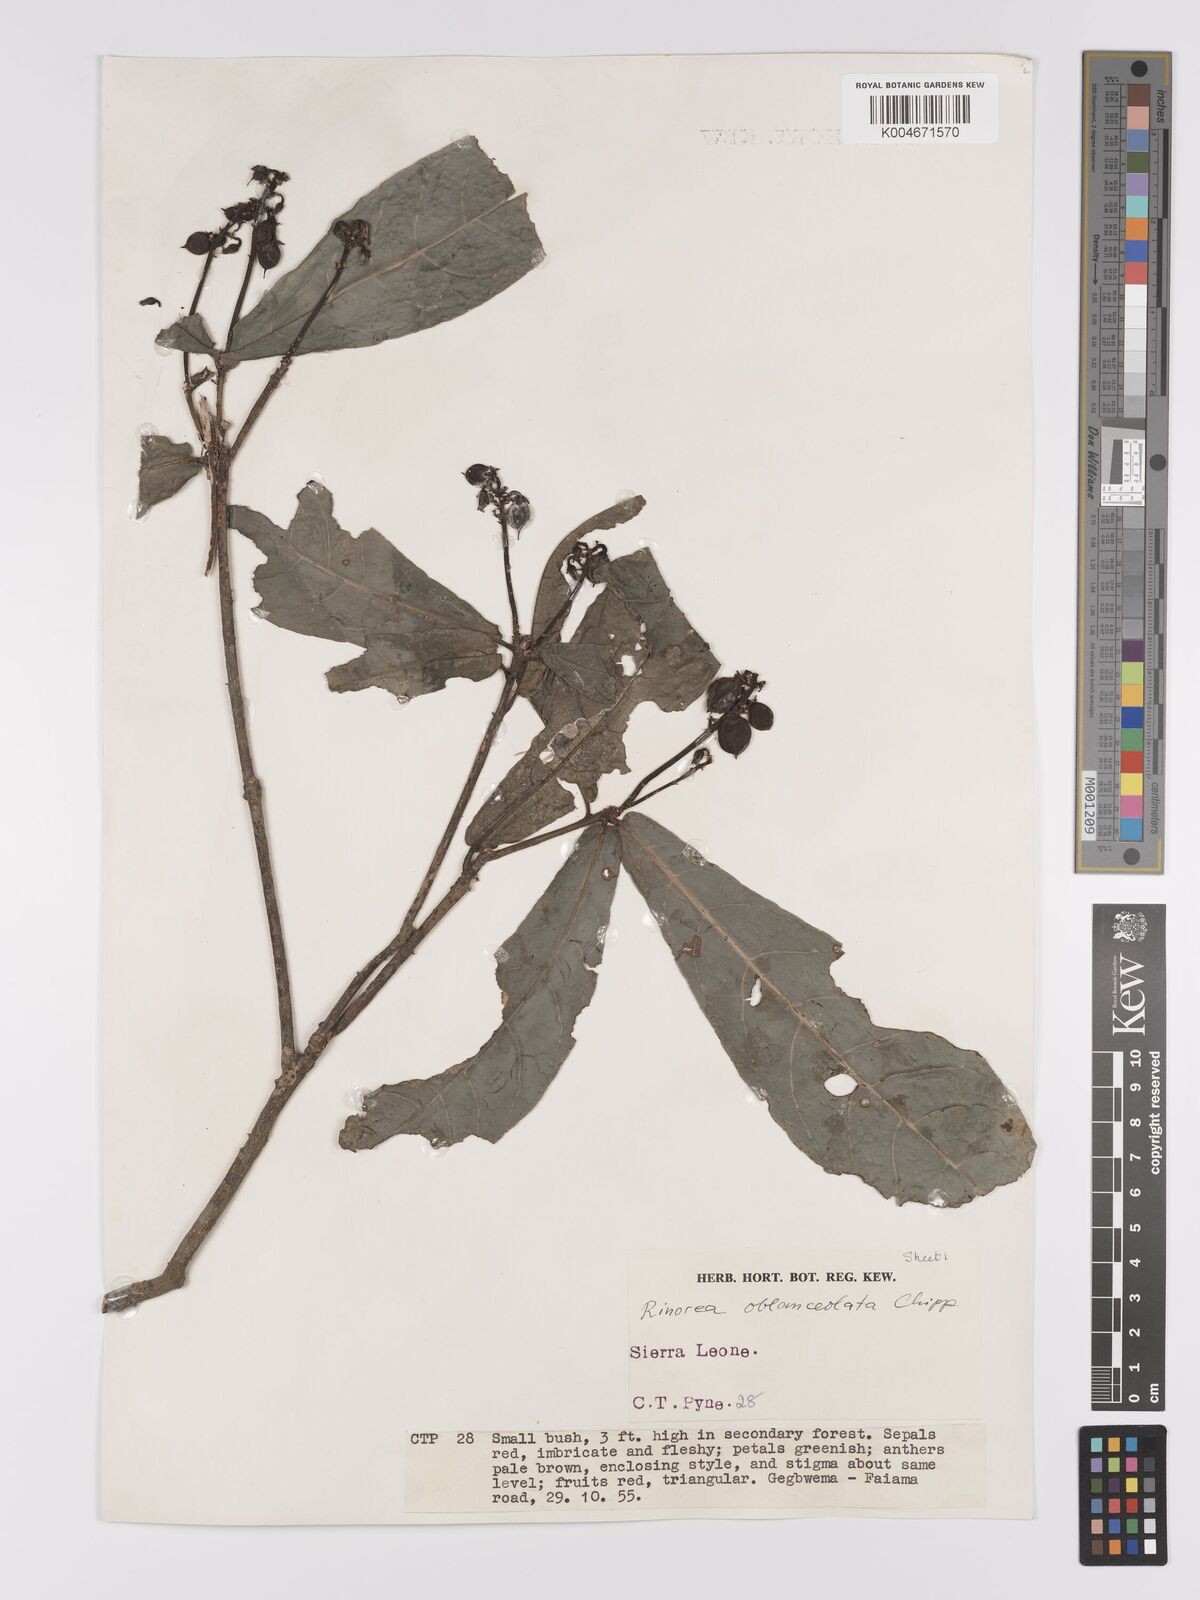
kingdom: Plantae
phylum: Tracheophyta
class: Magnoliopsida
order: Malpighiales
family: Violaceae
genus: Rinorea
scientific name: Rinorea oblanceolata
